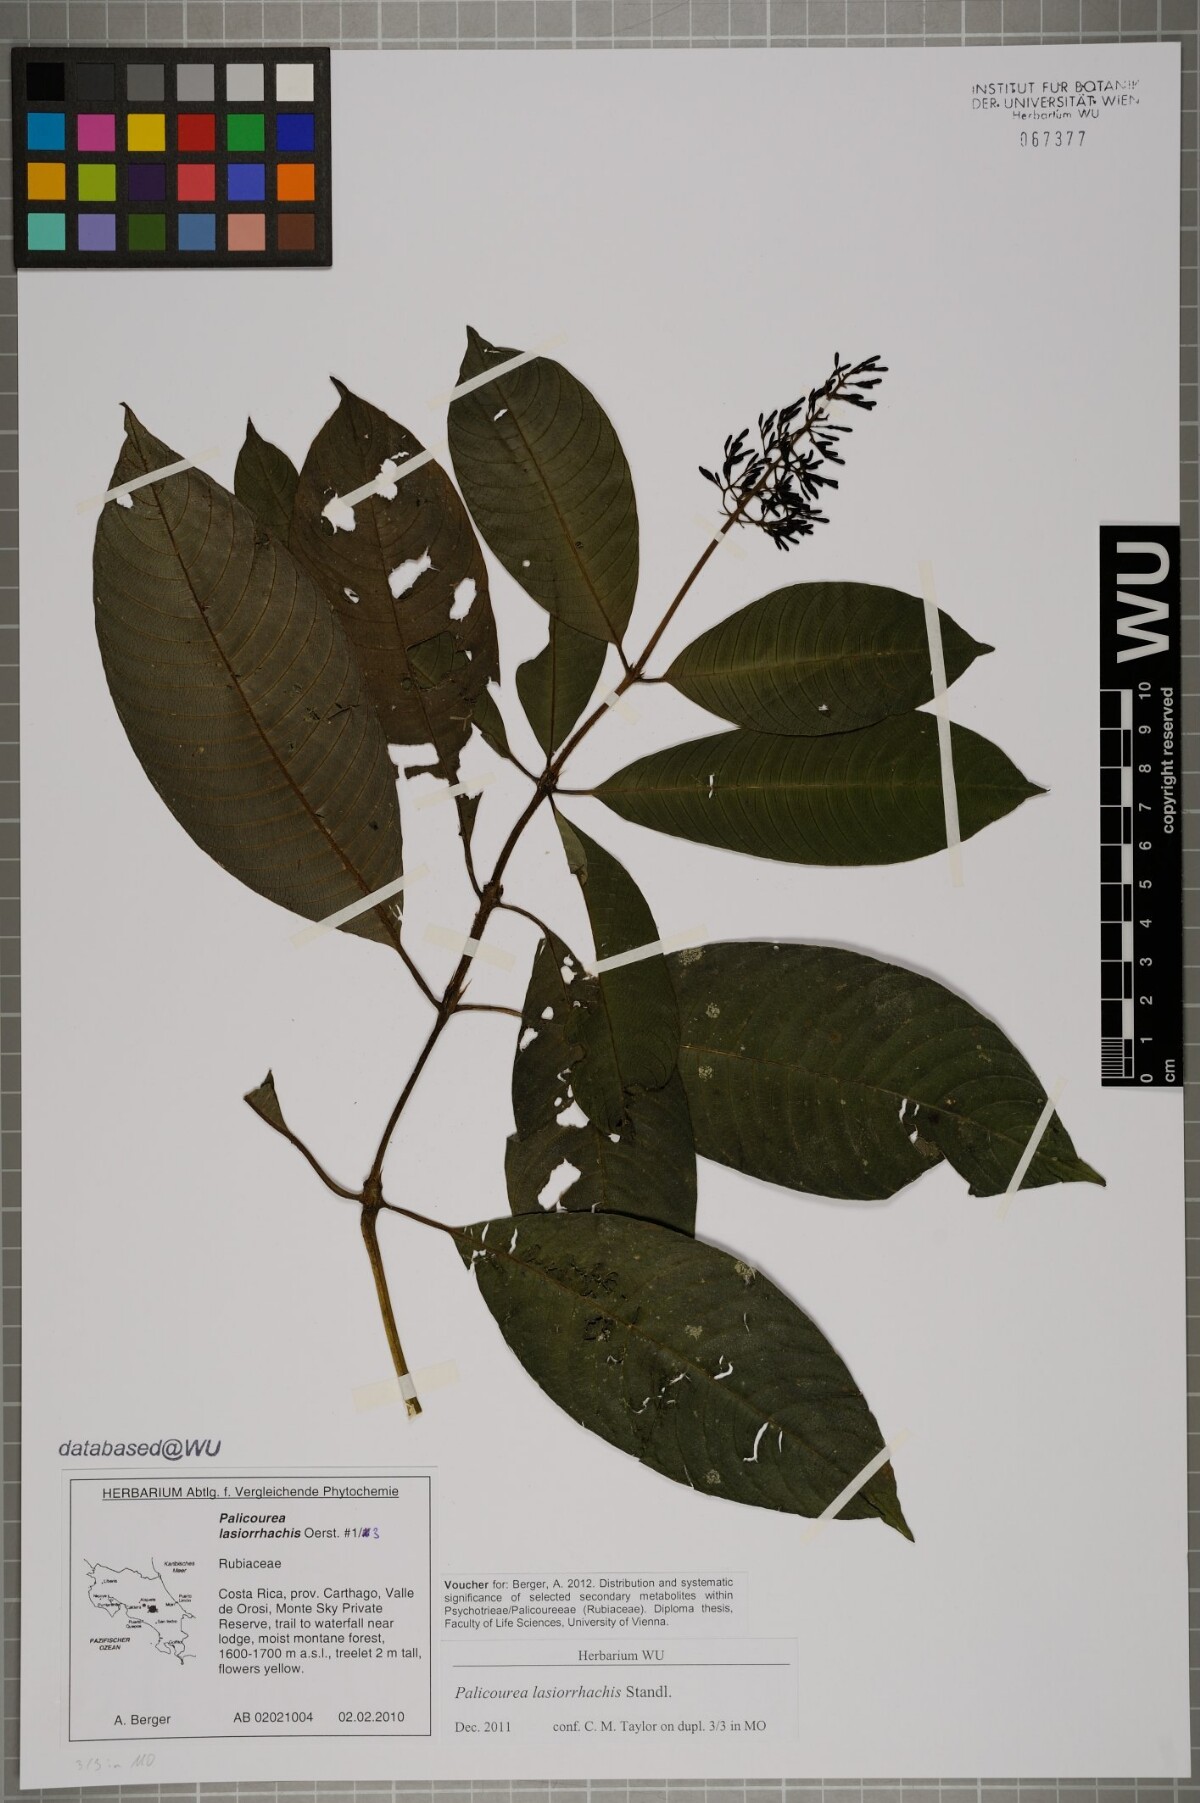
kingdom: Plantae
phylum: Tracheophyta
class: Magnoliopsida
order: Gentianales
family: Rubiaceae
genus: Palicourea
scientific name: Palicourea lasiorrhachis
